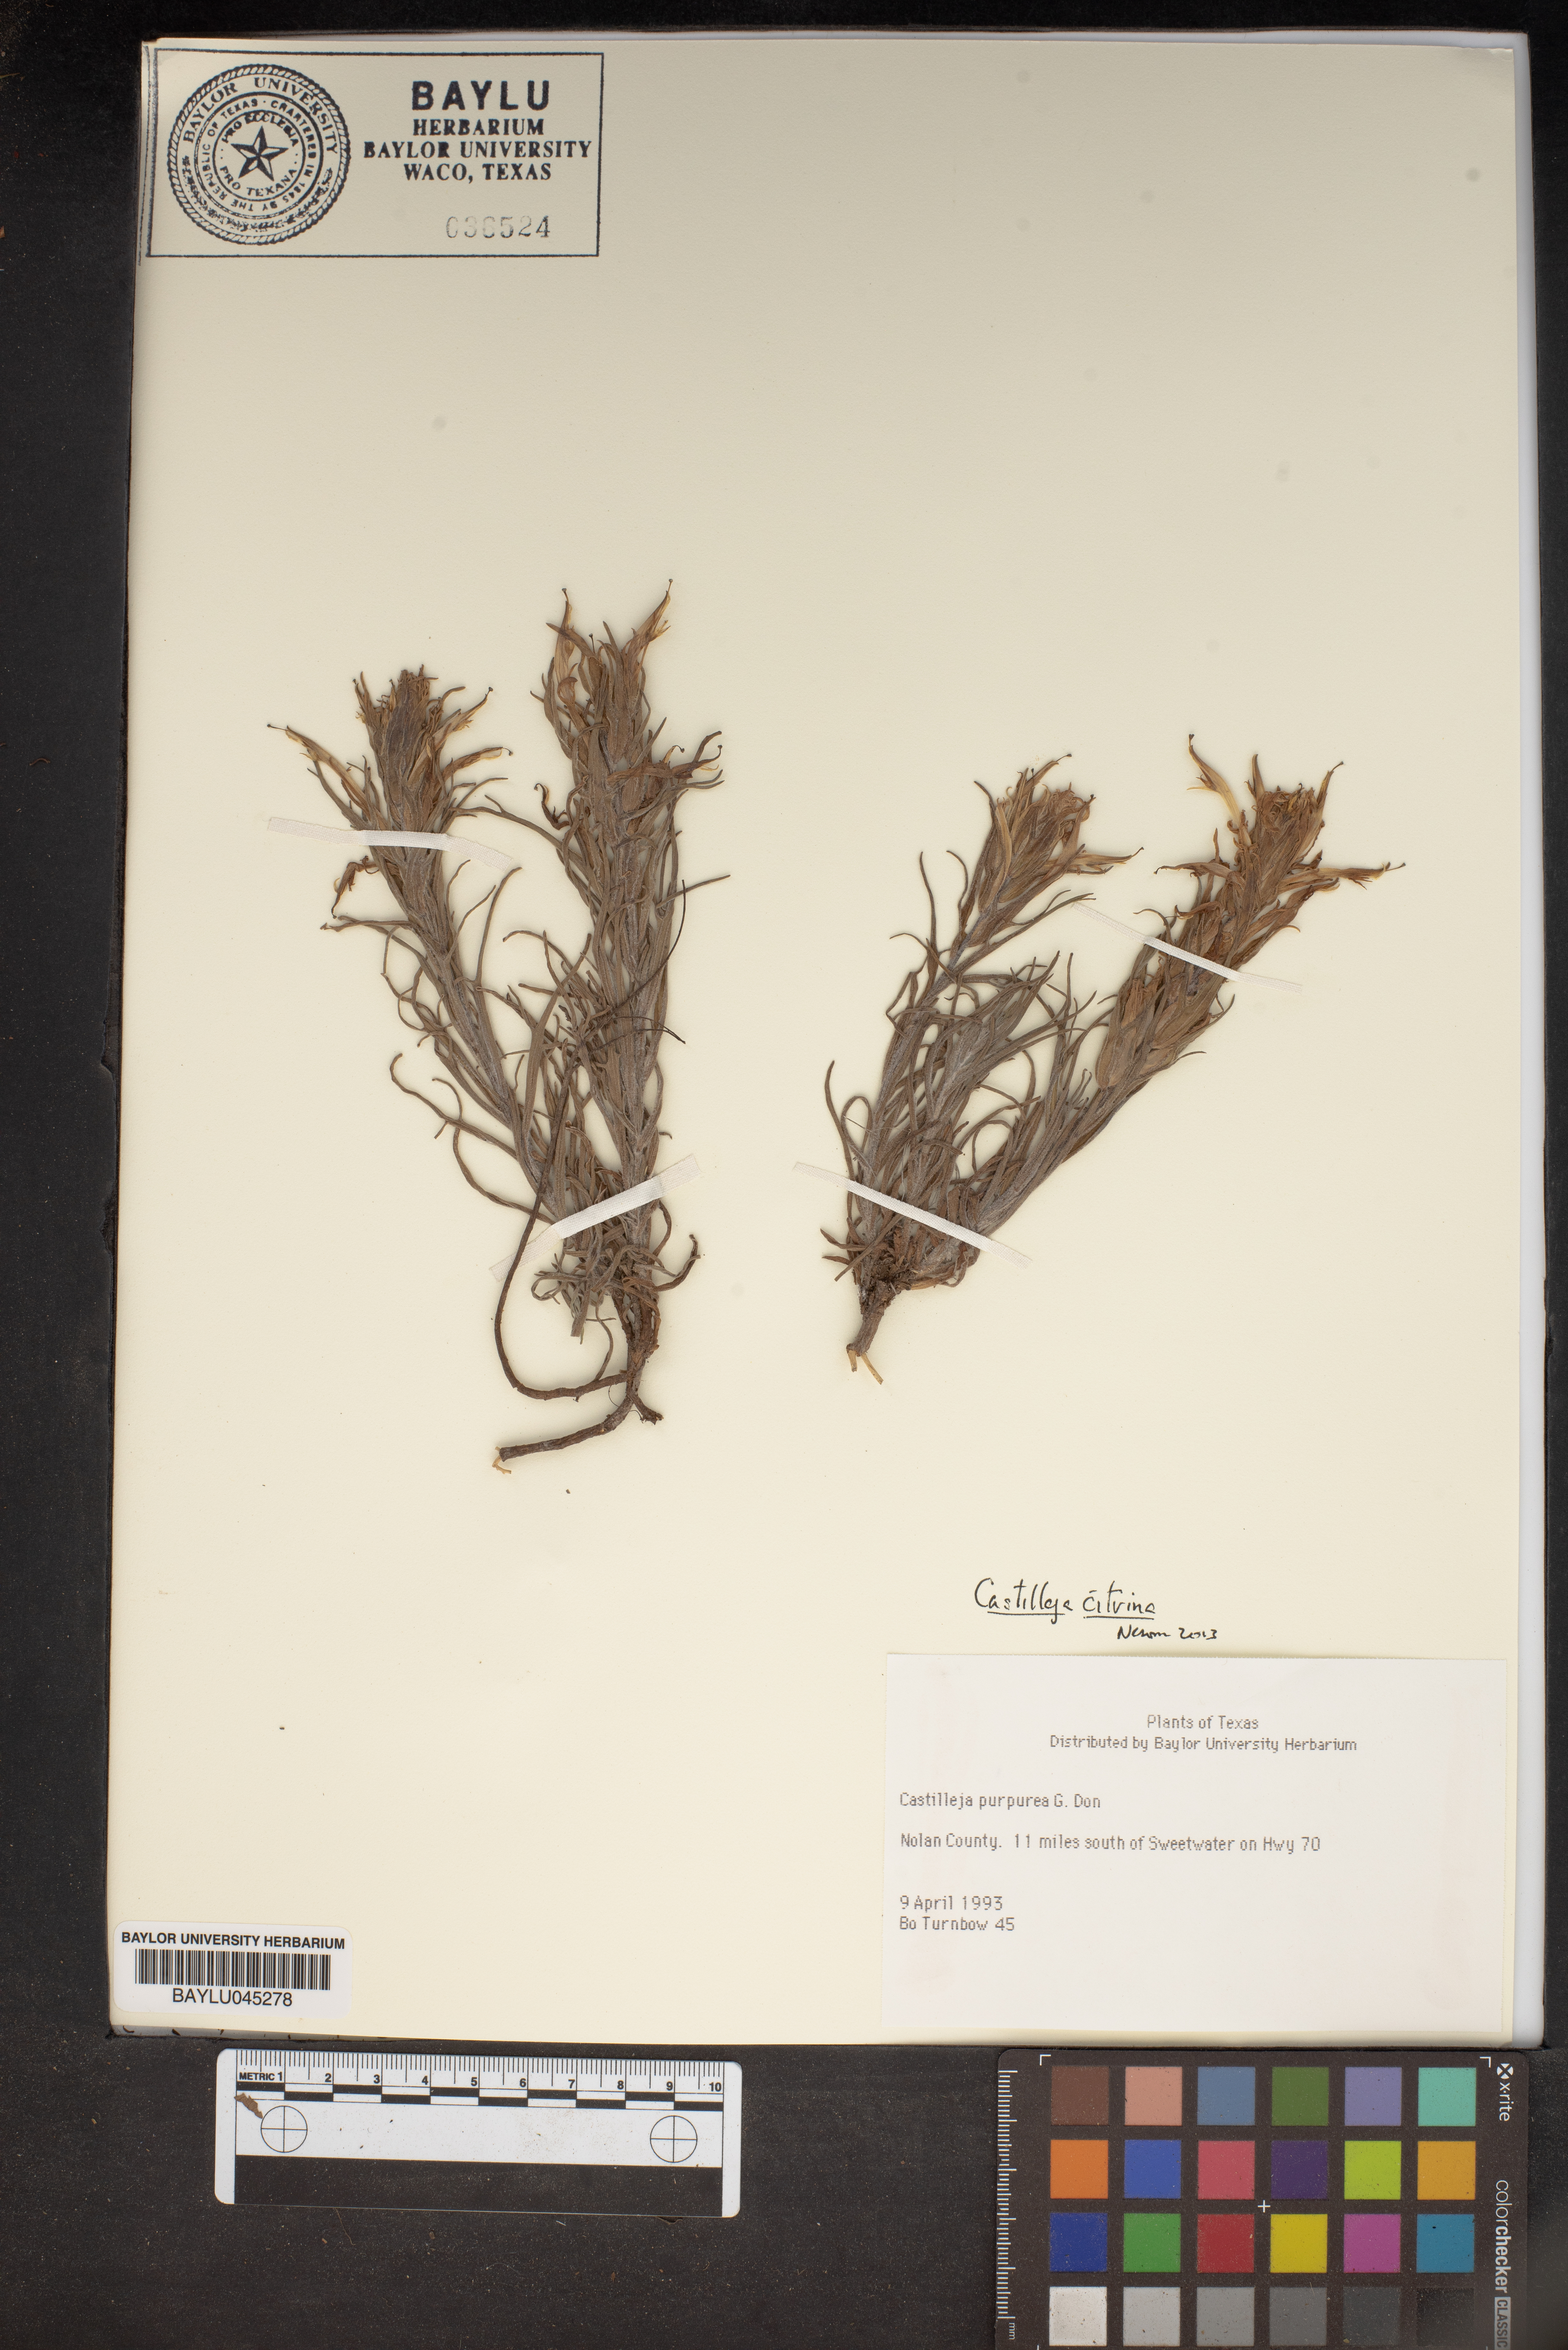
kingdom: Plantae
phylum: Tracheophyta
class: Magnoliopsida
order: Lamiales
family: Orobanchaceae
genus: Castilleja
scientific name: Castilleja purpurea
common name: Plains paintbrush
